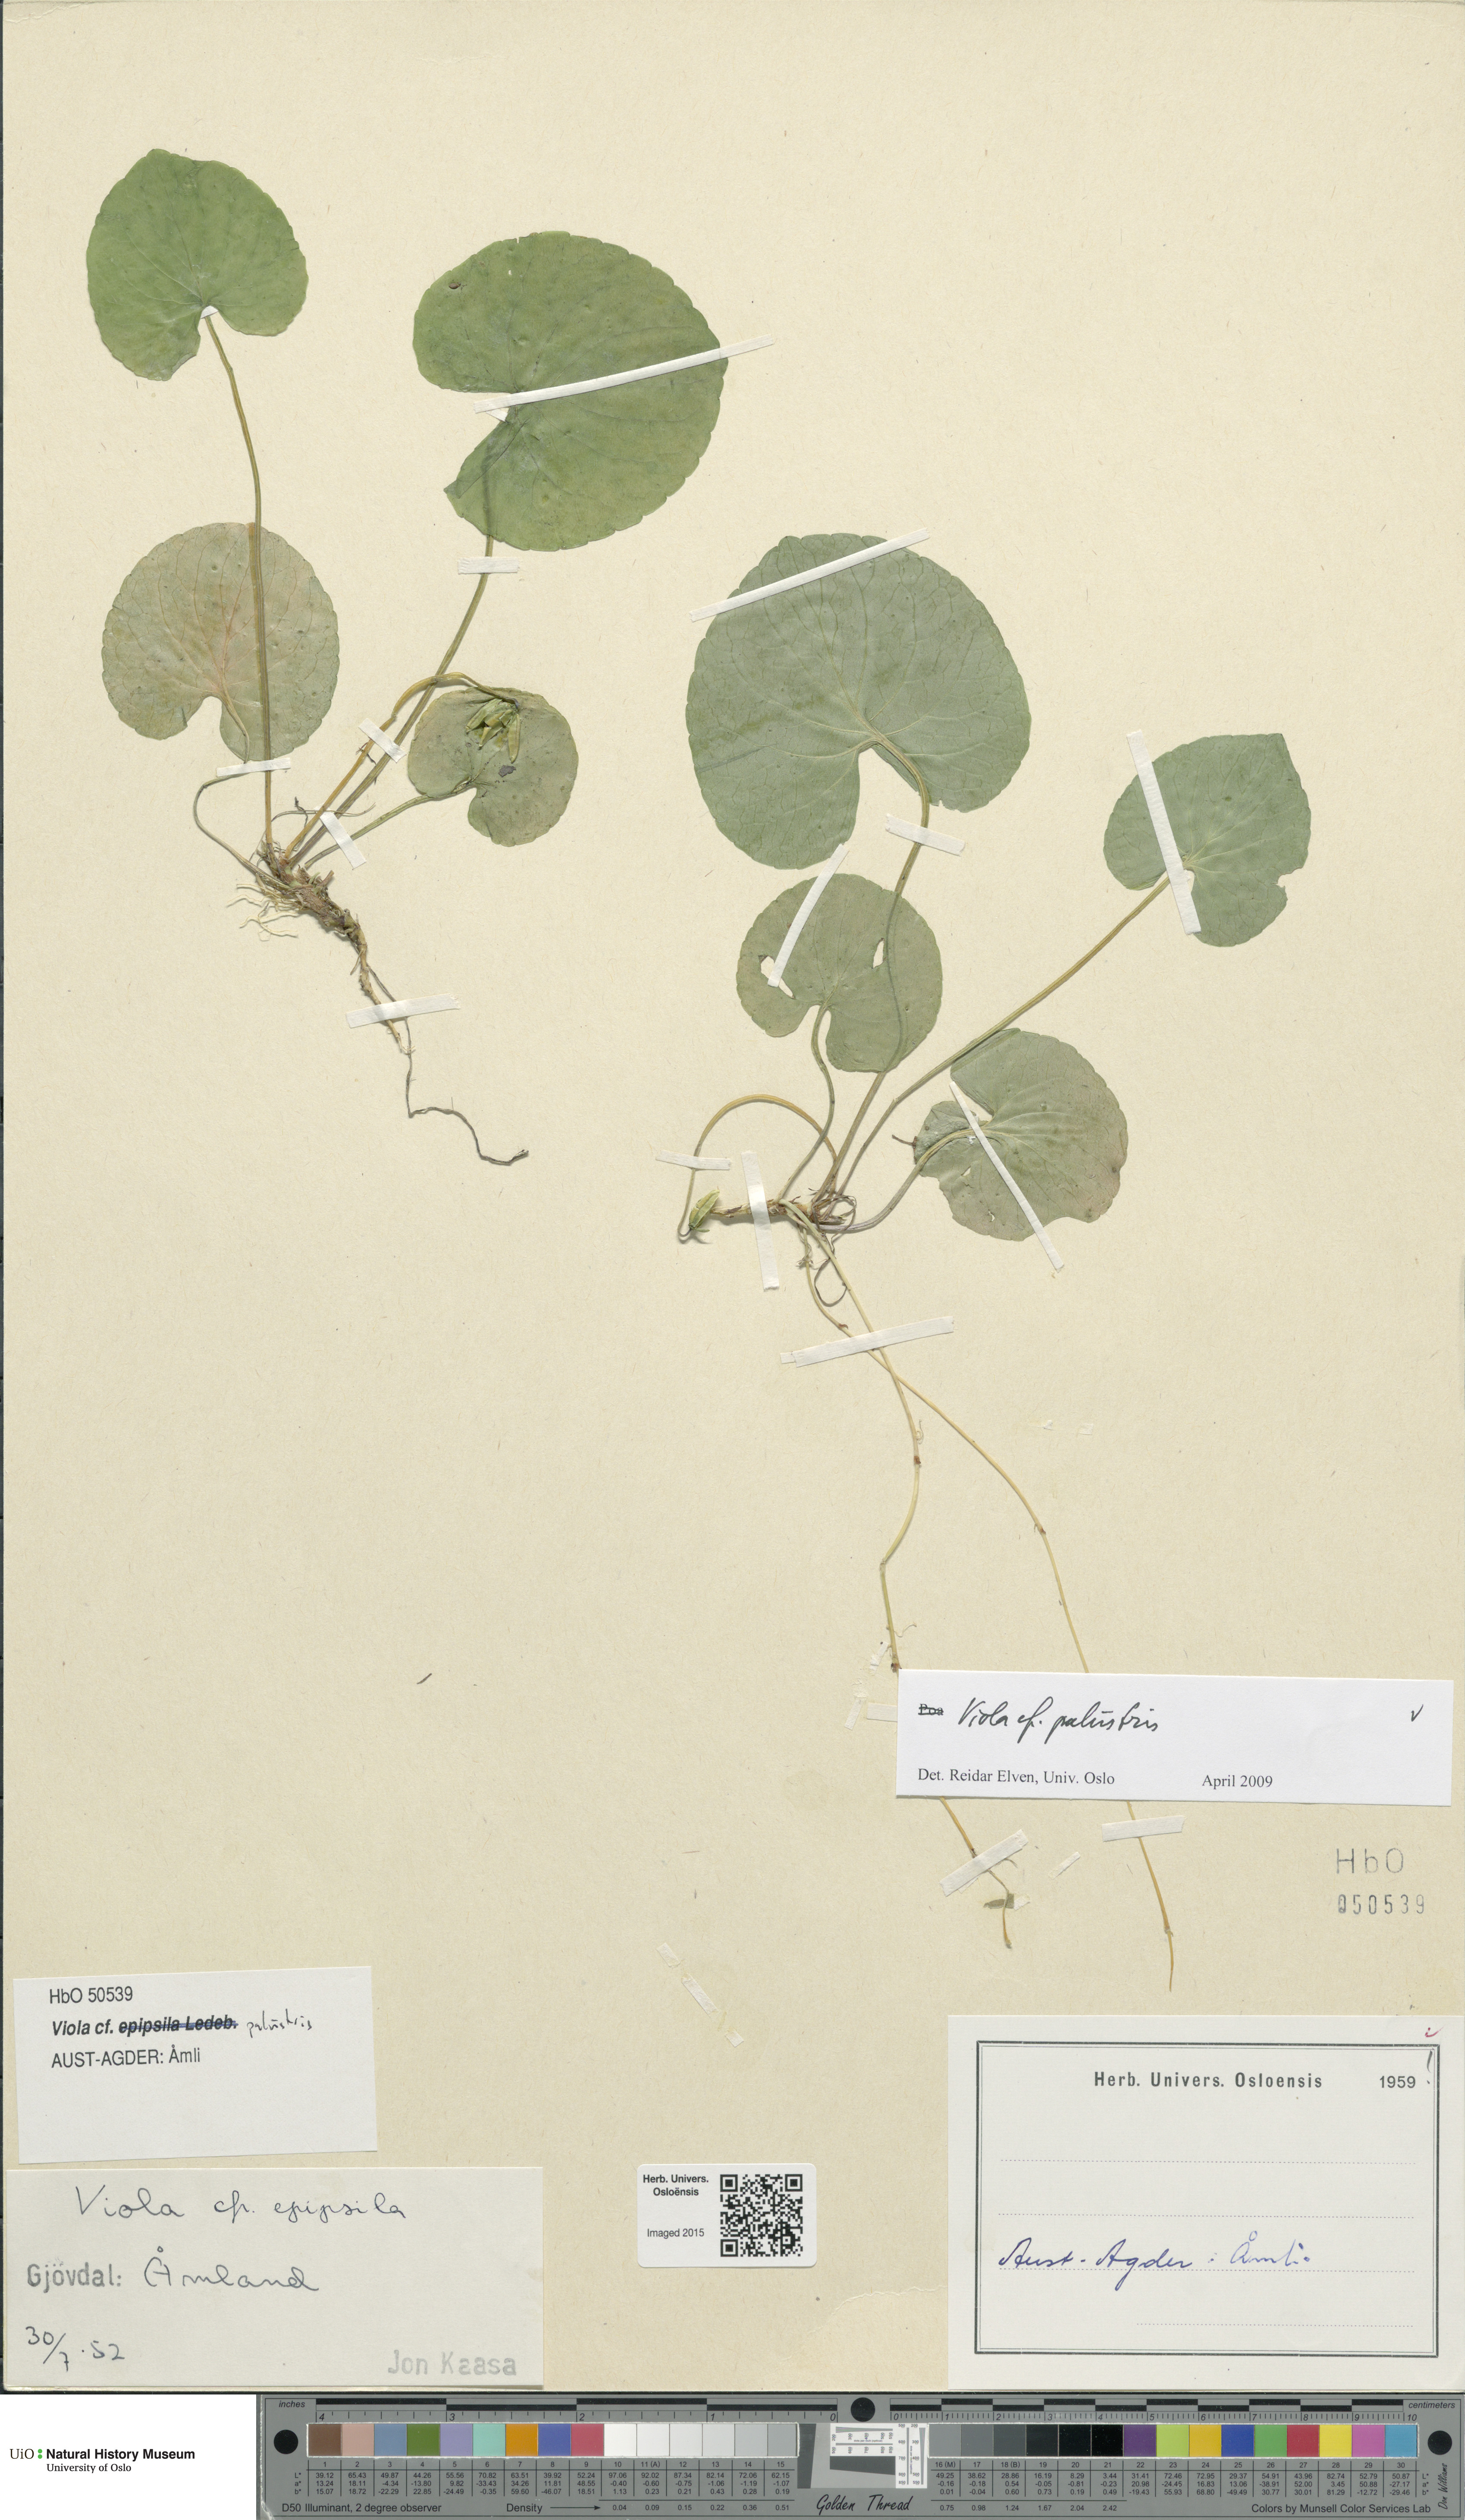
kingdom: Plantae
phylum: Tracheophyta
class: Magnoliopsida
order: Malpighiales
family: Violaceae
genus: Viola
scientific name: Viola palustris
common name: Marsh violet
